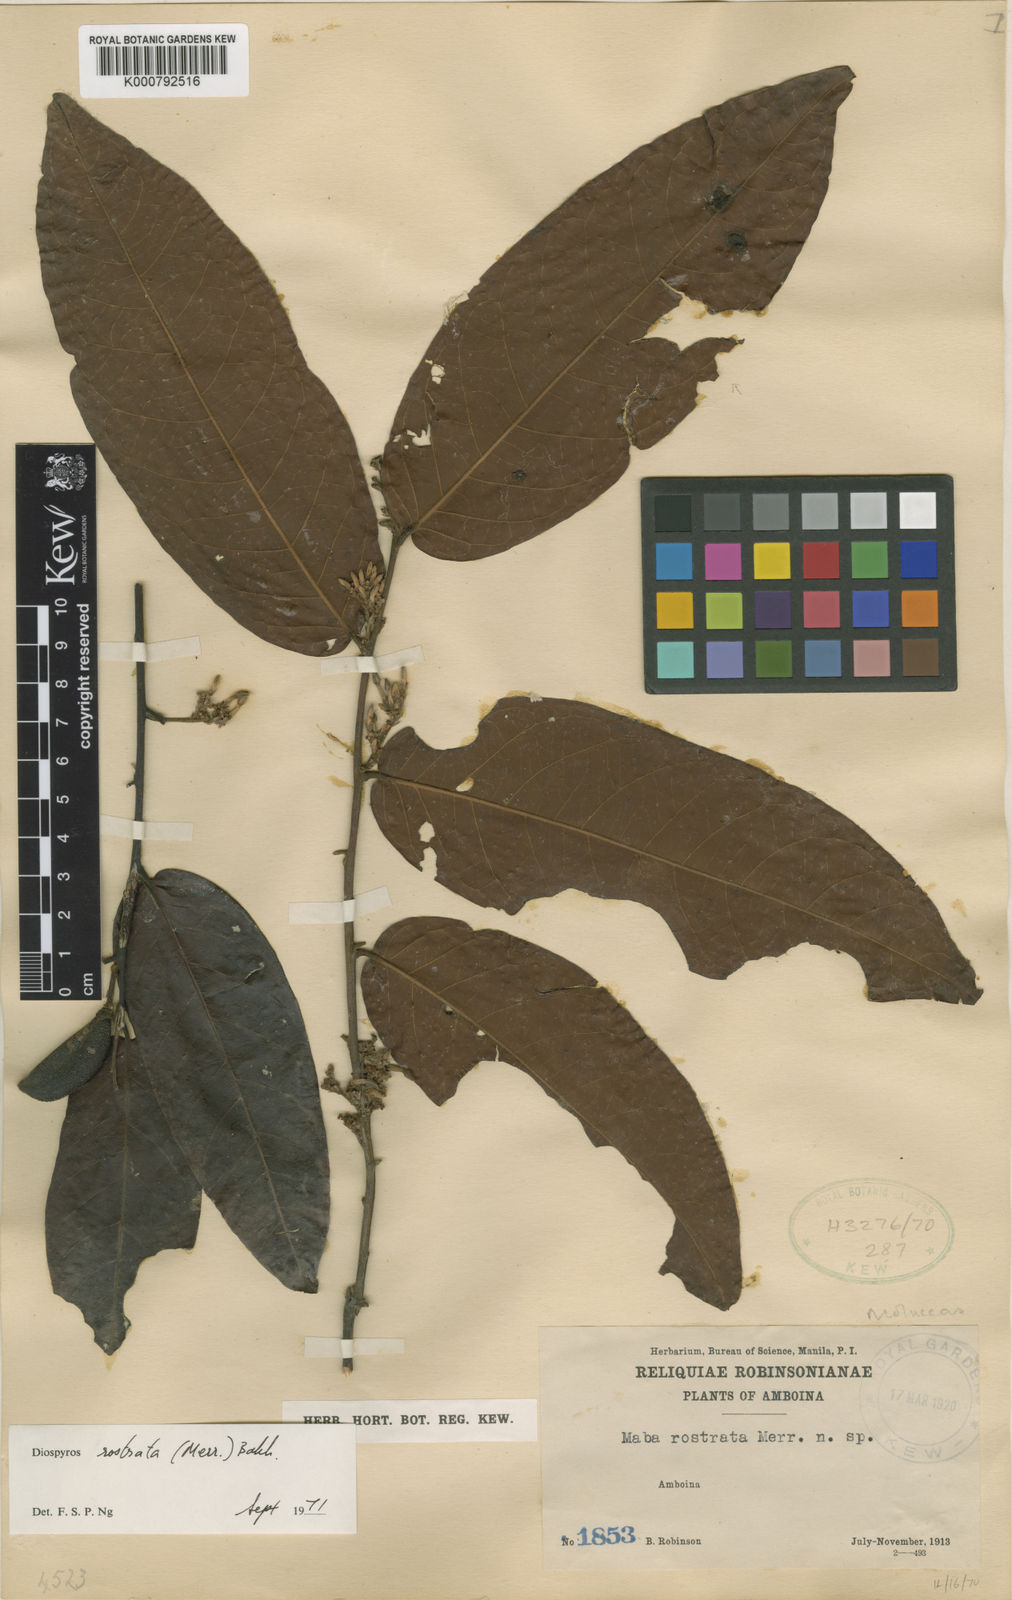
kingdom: Plantae
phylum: Tracheophyta
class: Magnoliopsida
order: Ericales
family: Ebenaceae
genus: Diospyros
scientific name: Diospyros rostrata
